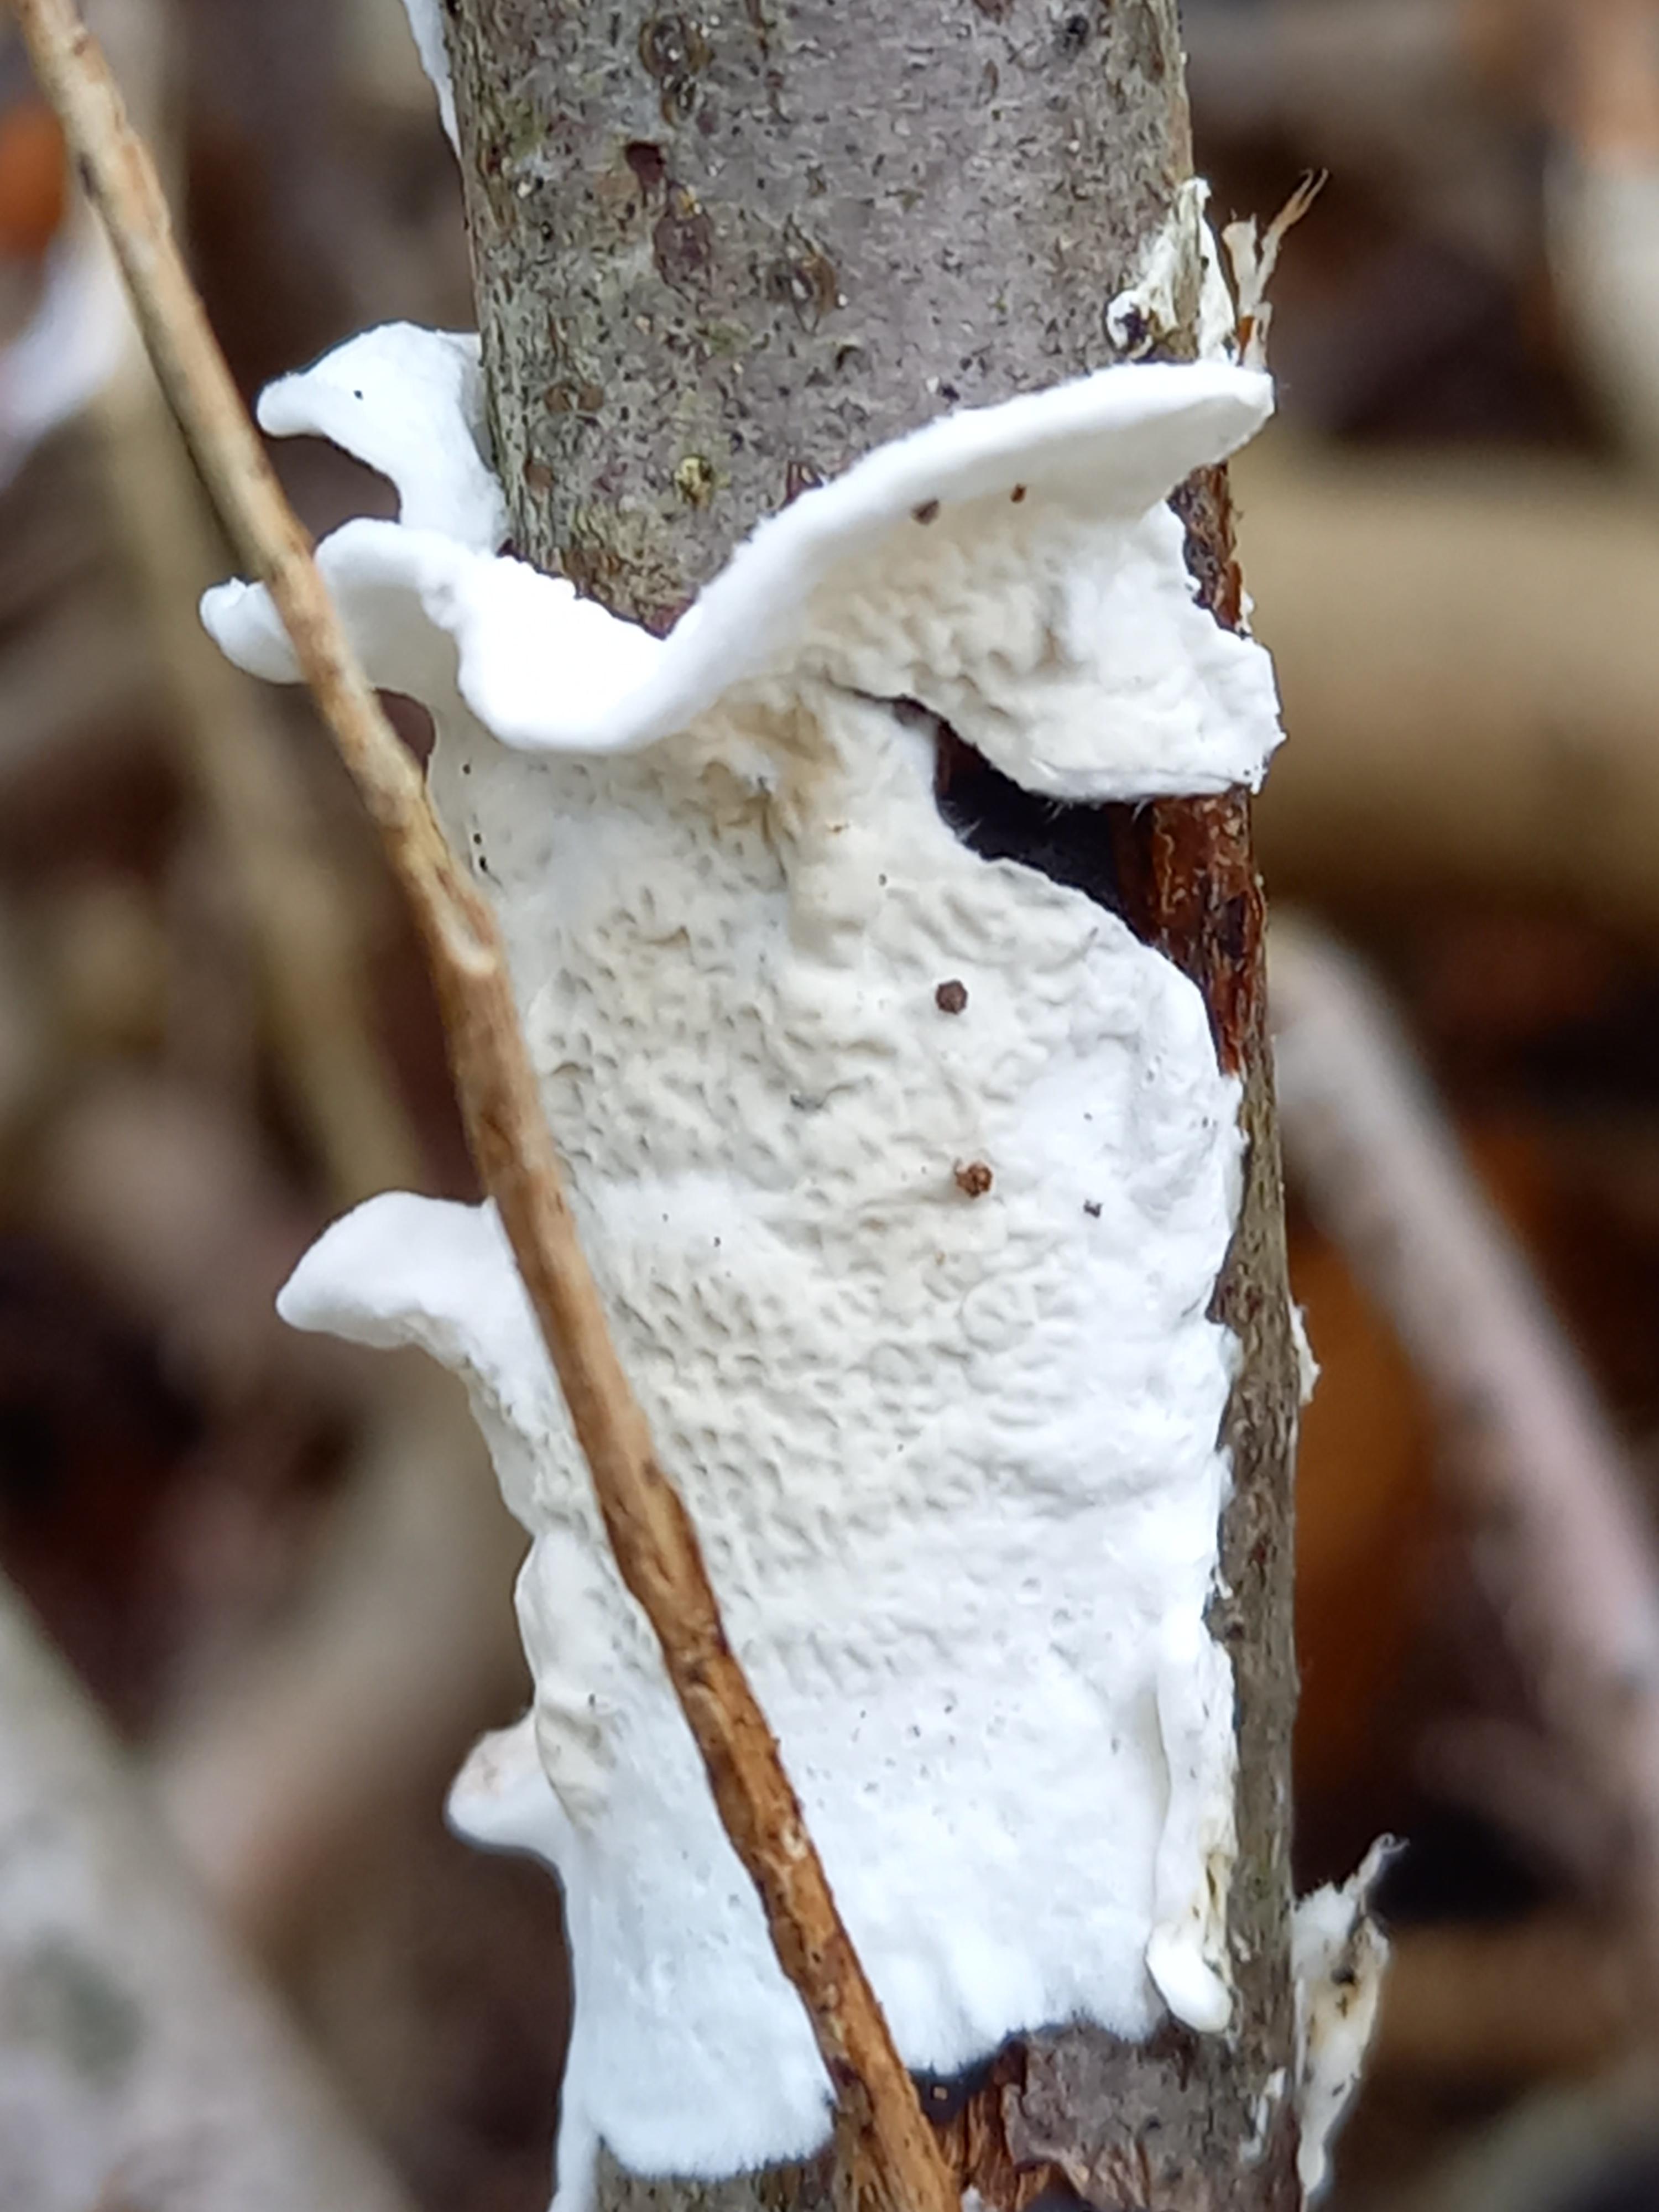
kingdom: Fungi
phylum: Basidiomycota
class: Agaricomycetes
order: Polyporales
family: Irpicaceae
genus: Byssomerulius
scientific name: Byssomerulius corium
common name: læder-åresvamp
